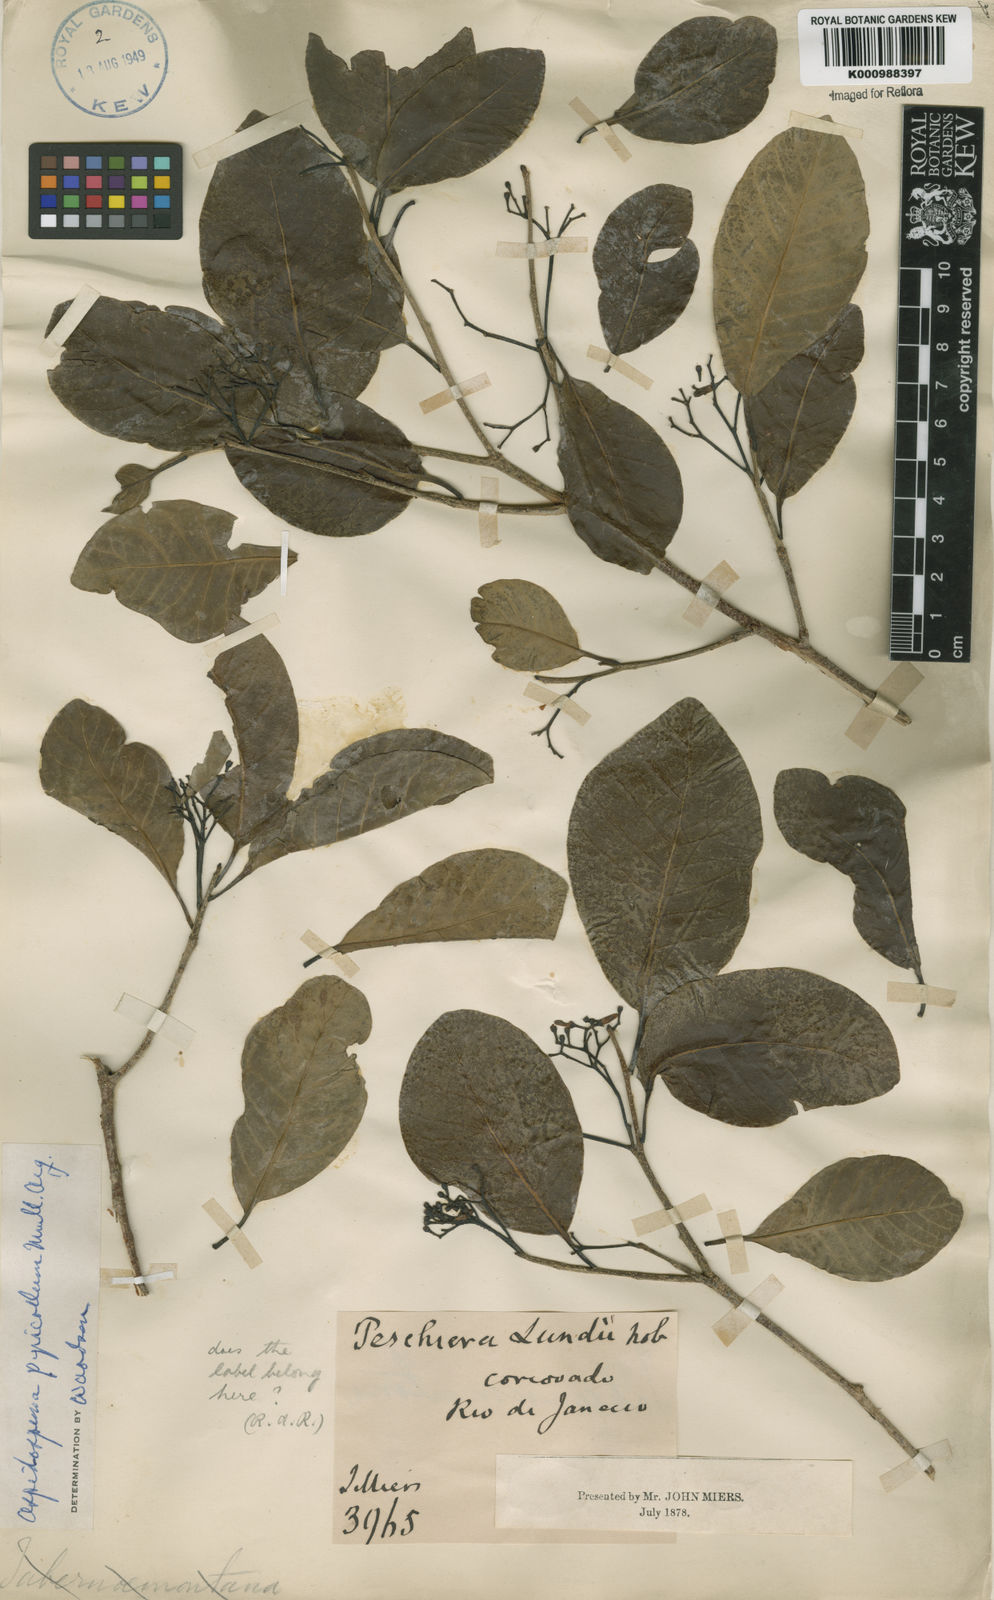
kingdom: Plantae
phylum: Tracheophyta
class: Magnoliopsida
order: Gentianales
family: Apocynaceae
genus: Aspidosperma
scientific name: Aspidosperma
